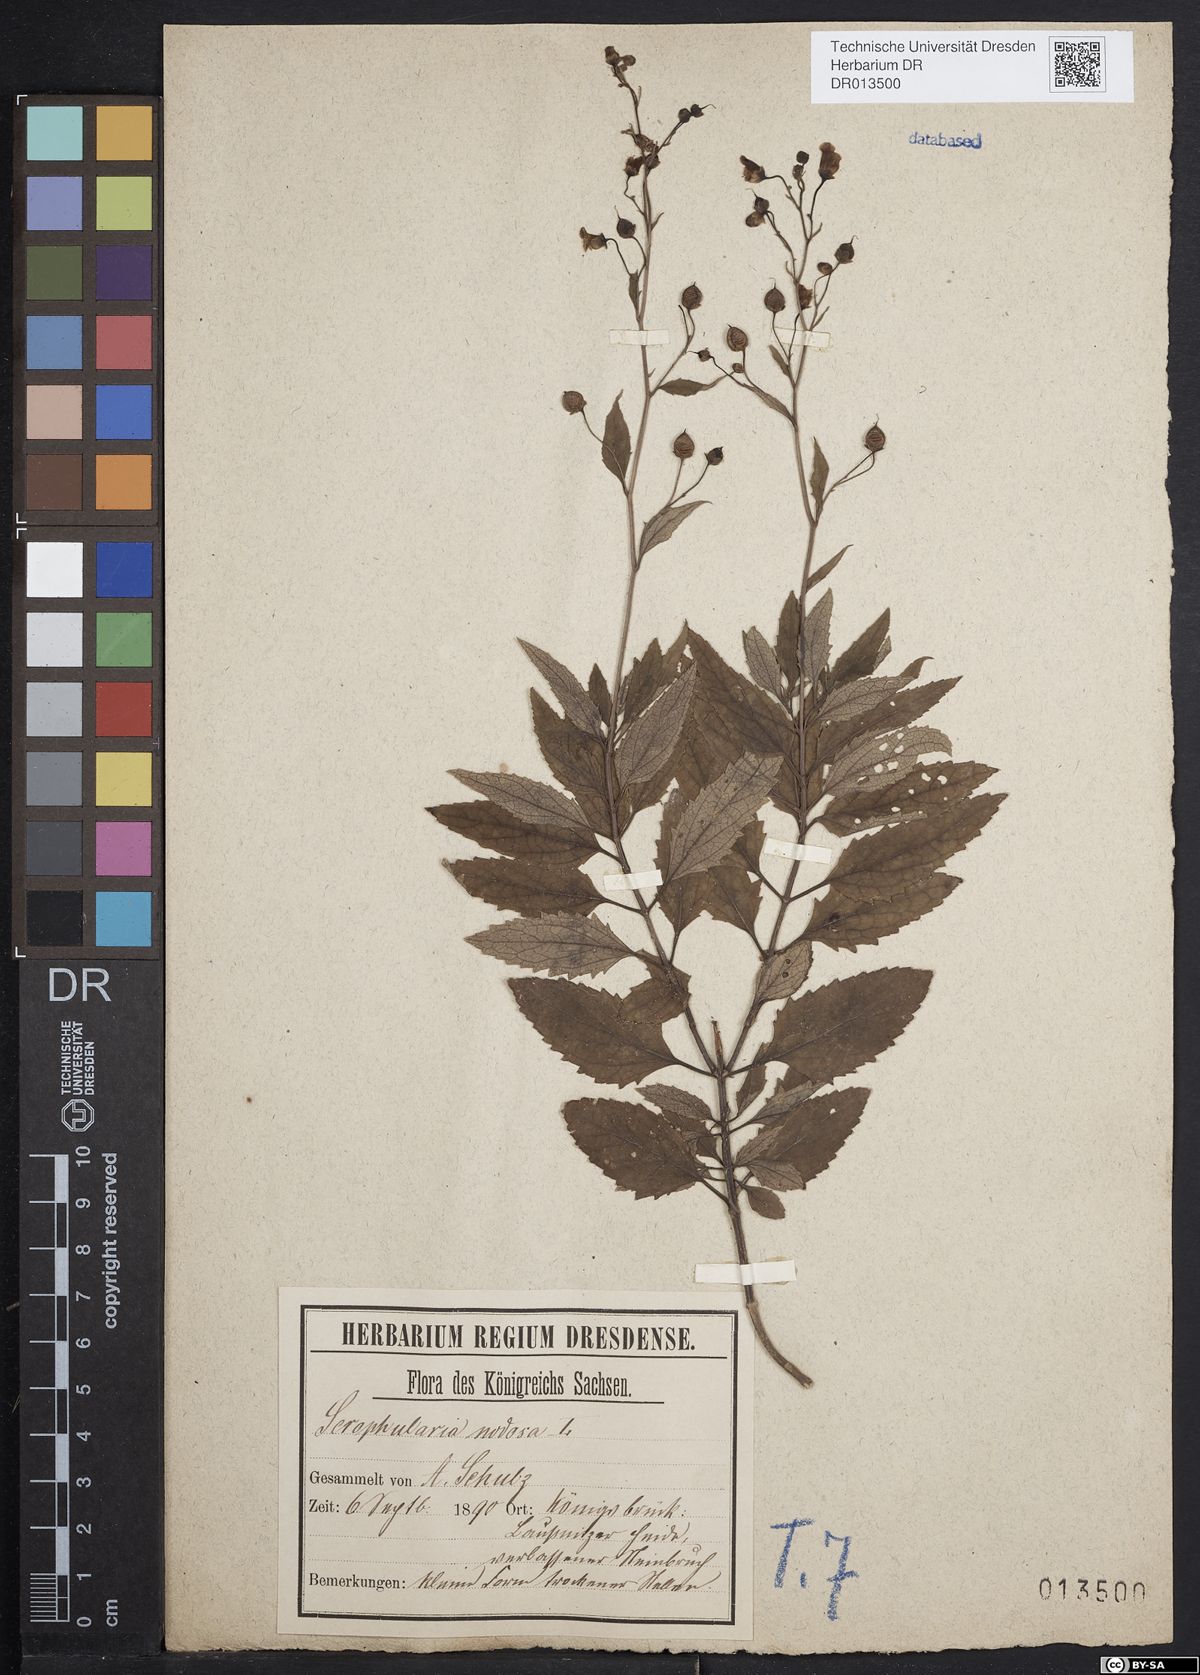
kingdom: Plantae
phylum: Tracheophyta
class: Magnoliopsida
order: Lamiales
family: Scrophulariaceae
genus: Scrophularia
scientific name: Scrophularia nodosa
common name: Common figwort
